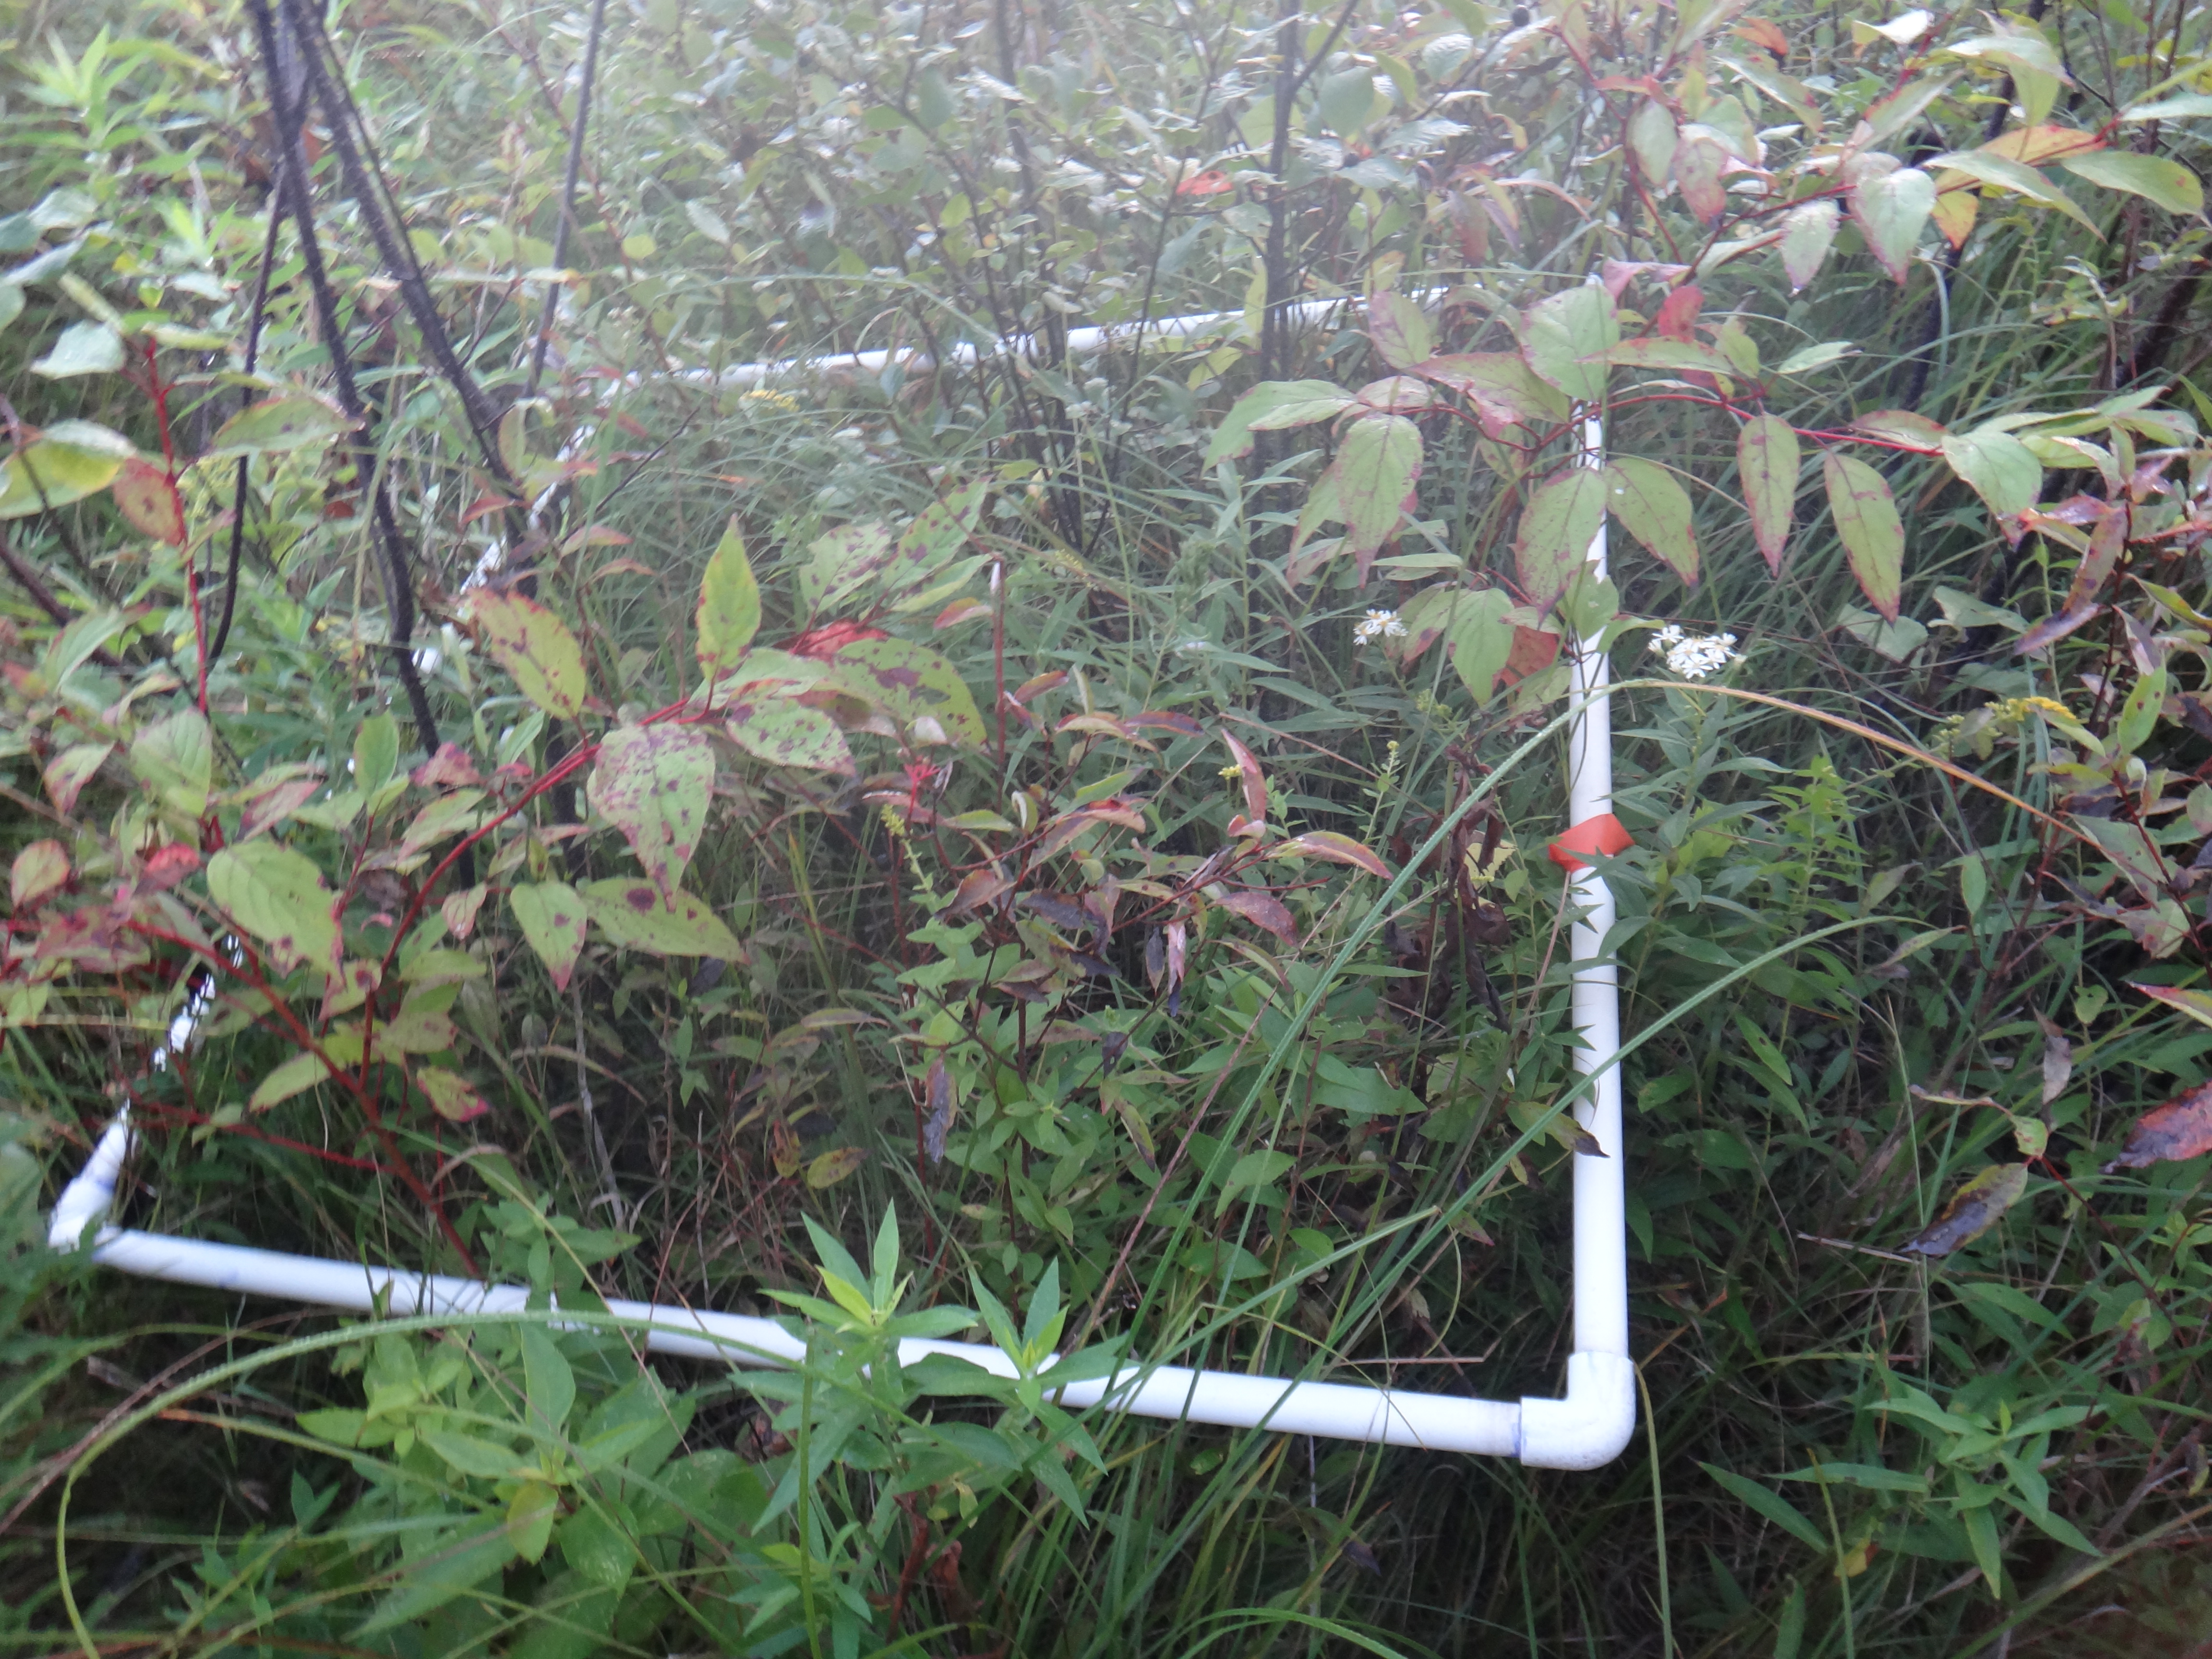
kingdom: Plantae
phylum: Tracheophyta
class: Magnoliopsida
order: Asterales
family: Asteraceae
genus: Symphyotrichum
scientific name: Symphyotrichum firmum
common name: Shining aster
